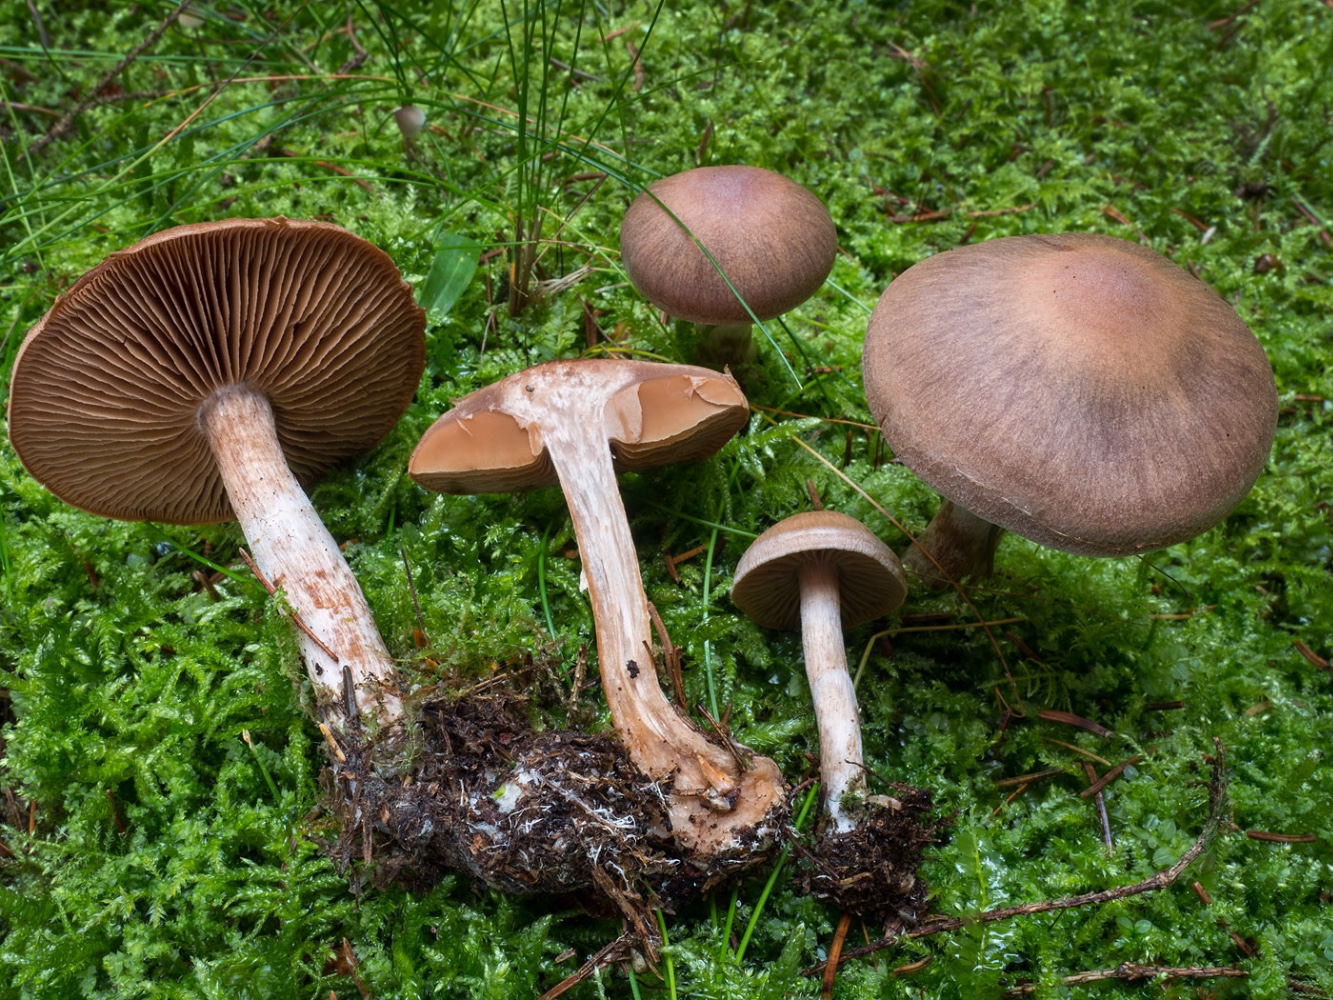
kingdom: Fungi
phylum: Basidiomycota
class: Agaricomycetes
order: Agaricales
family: Cortinariaceae
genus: Cortinarius
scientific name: Cortinarius athabascus
